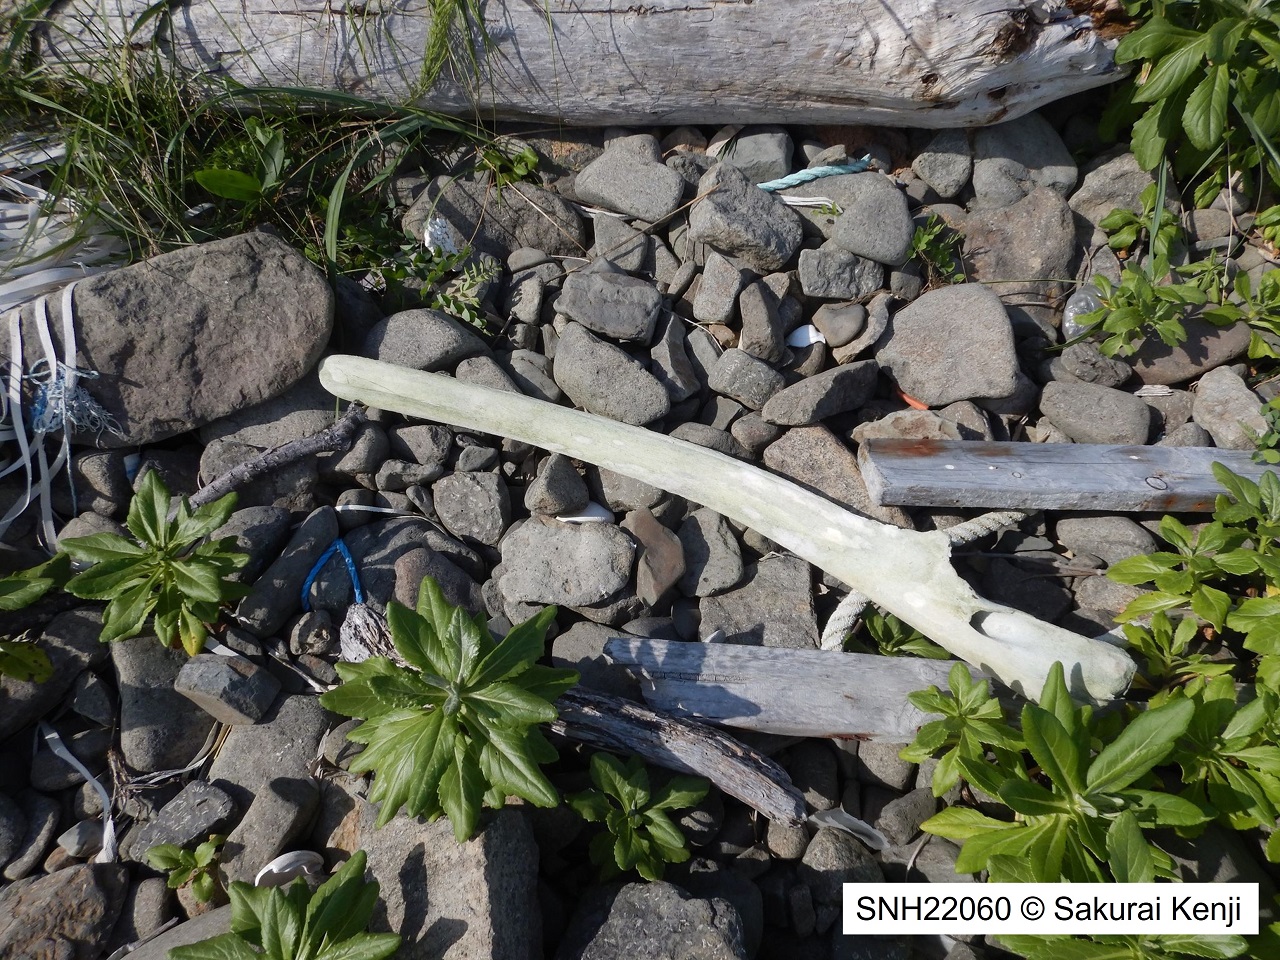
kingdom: Animalia
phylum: Chordata
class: Mammalia
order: Cetacea
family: Balaenopteridae
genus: Balaenoptera
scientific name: Balaenoptera acutorostrata
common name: Minke whale
